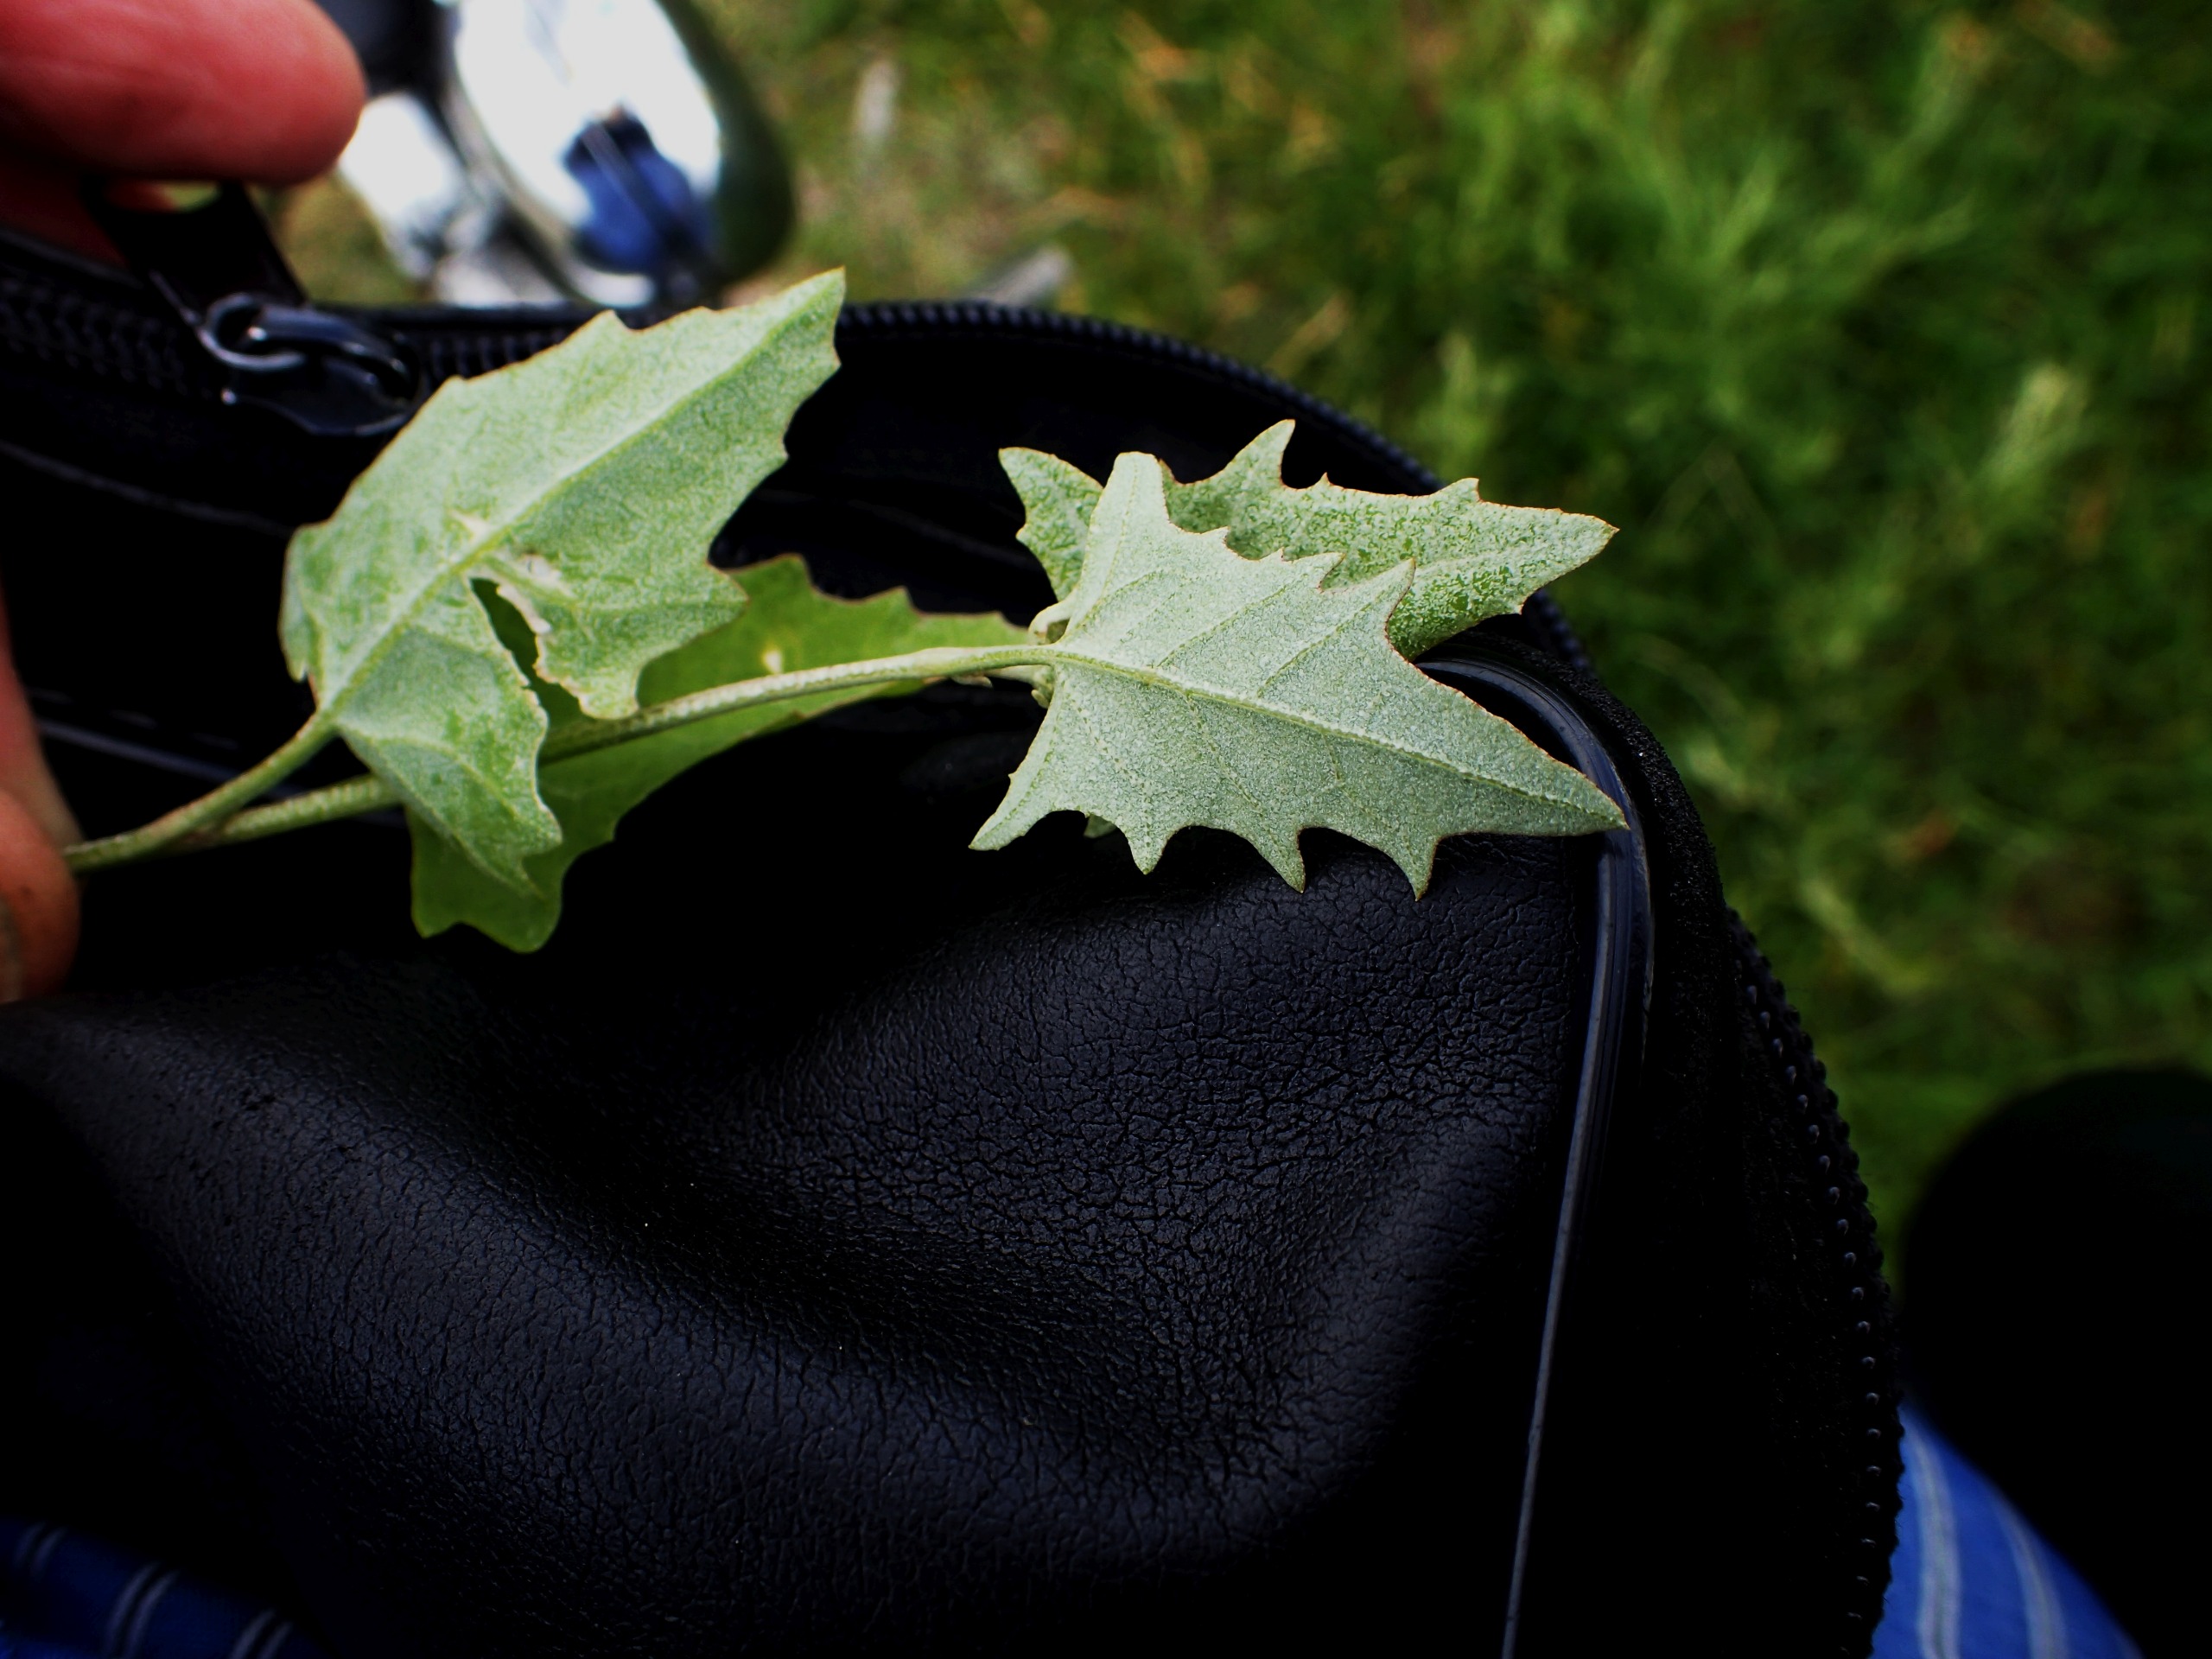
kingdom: Plantae
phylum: Tracheophyta
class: Magnoliopsida
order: Caryophyllales
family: Amaranthaceae
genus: Atriplex
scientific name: Atriplex prostrata
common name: Spyd-mælde
